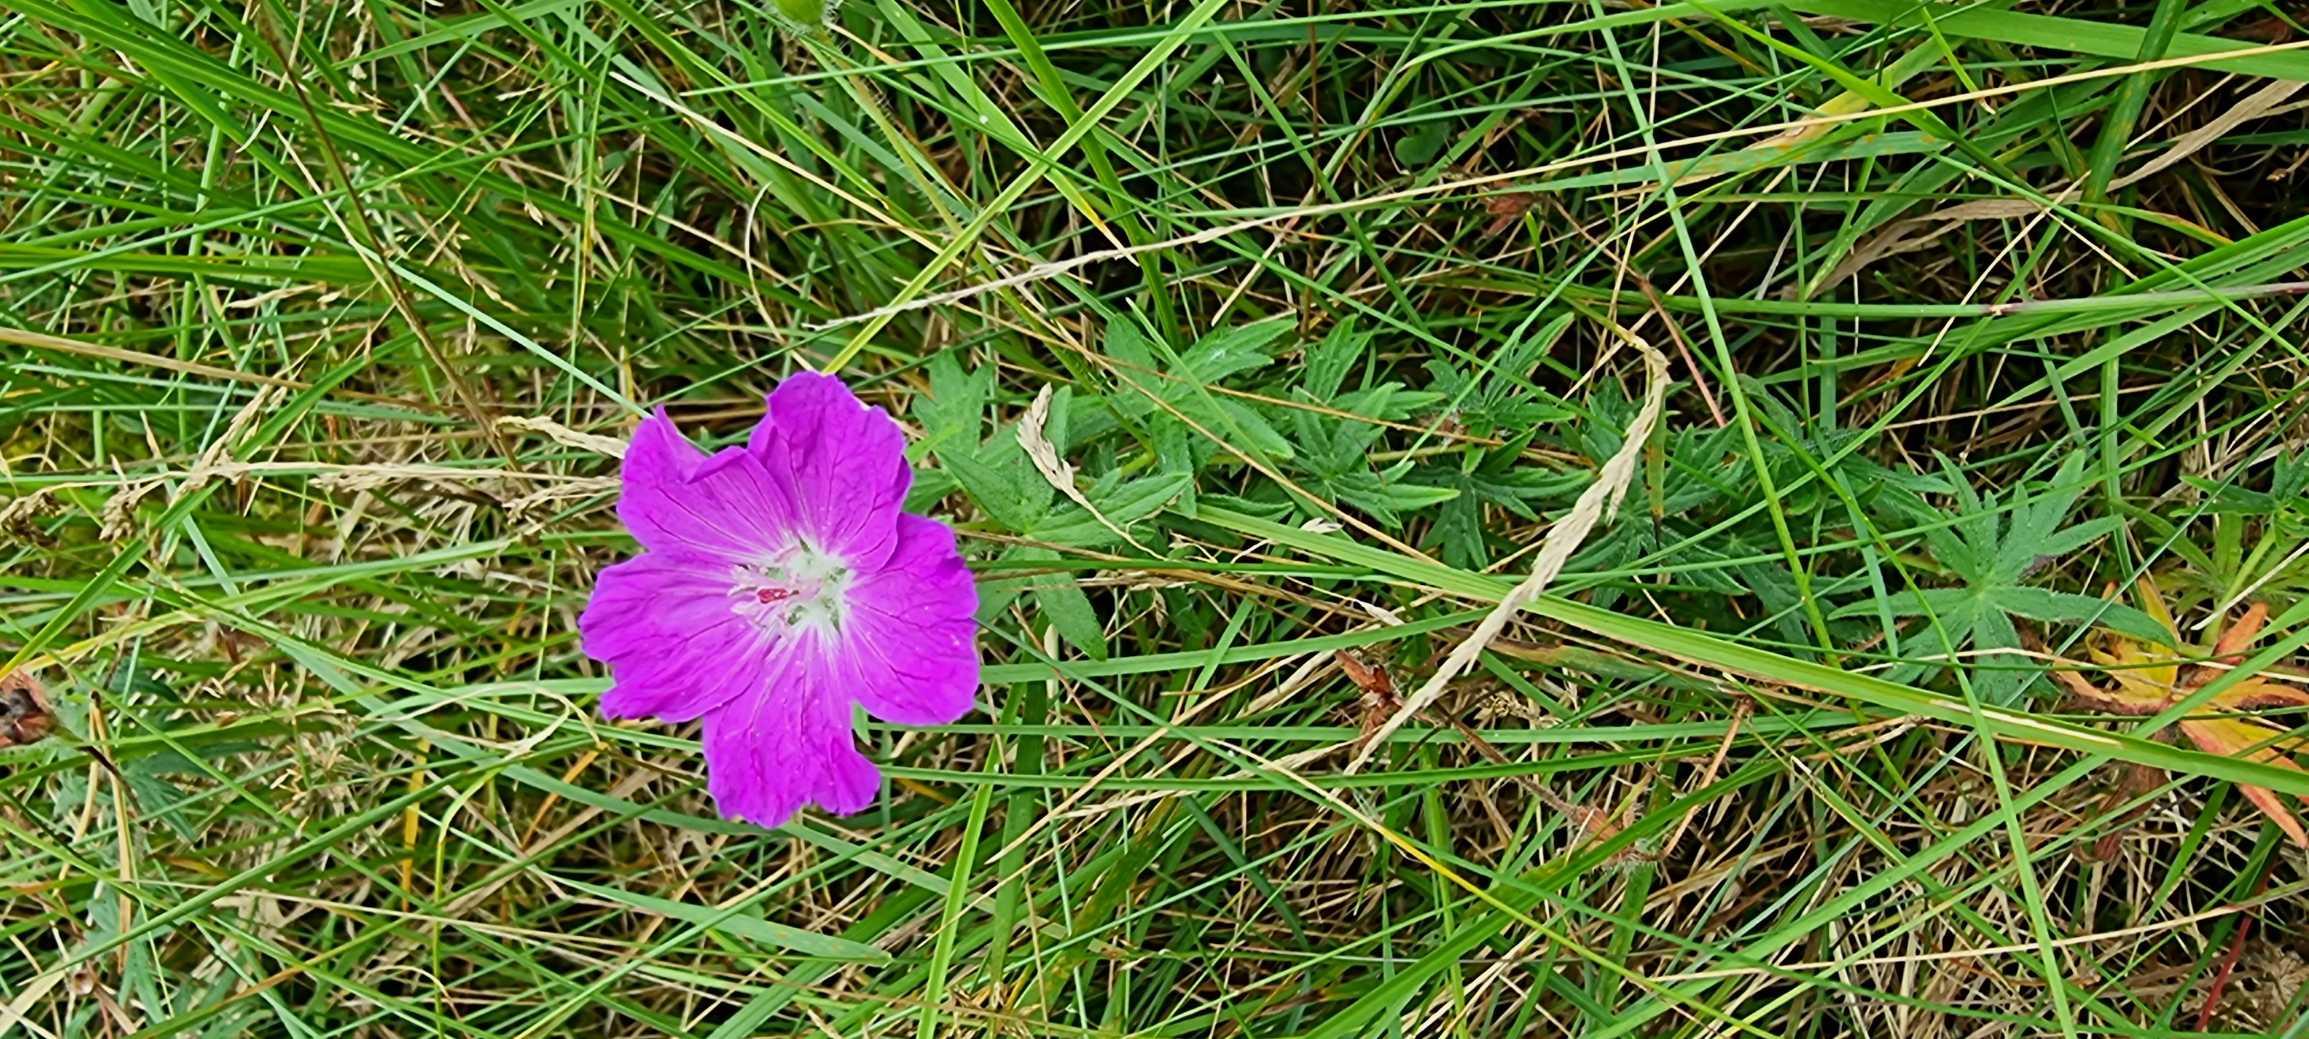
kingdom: Plantae
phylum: Tracheophyta
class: Magnoliopsida
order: Geraniales
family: Geraniaceae
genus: Geranium
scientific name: Geranium sanguineum
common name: Blodrød storkenæb
